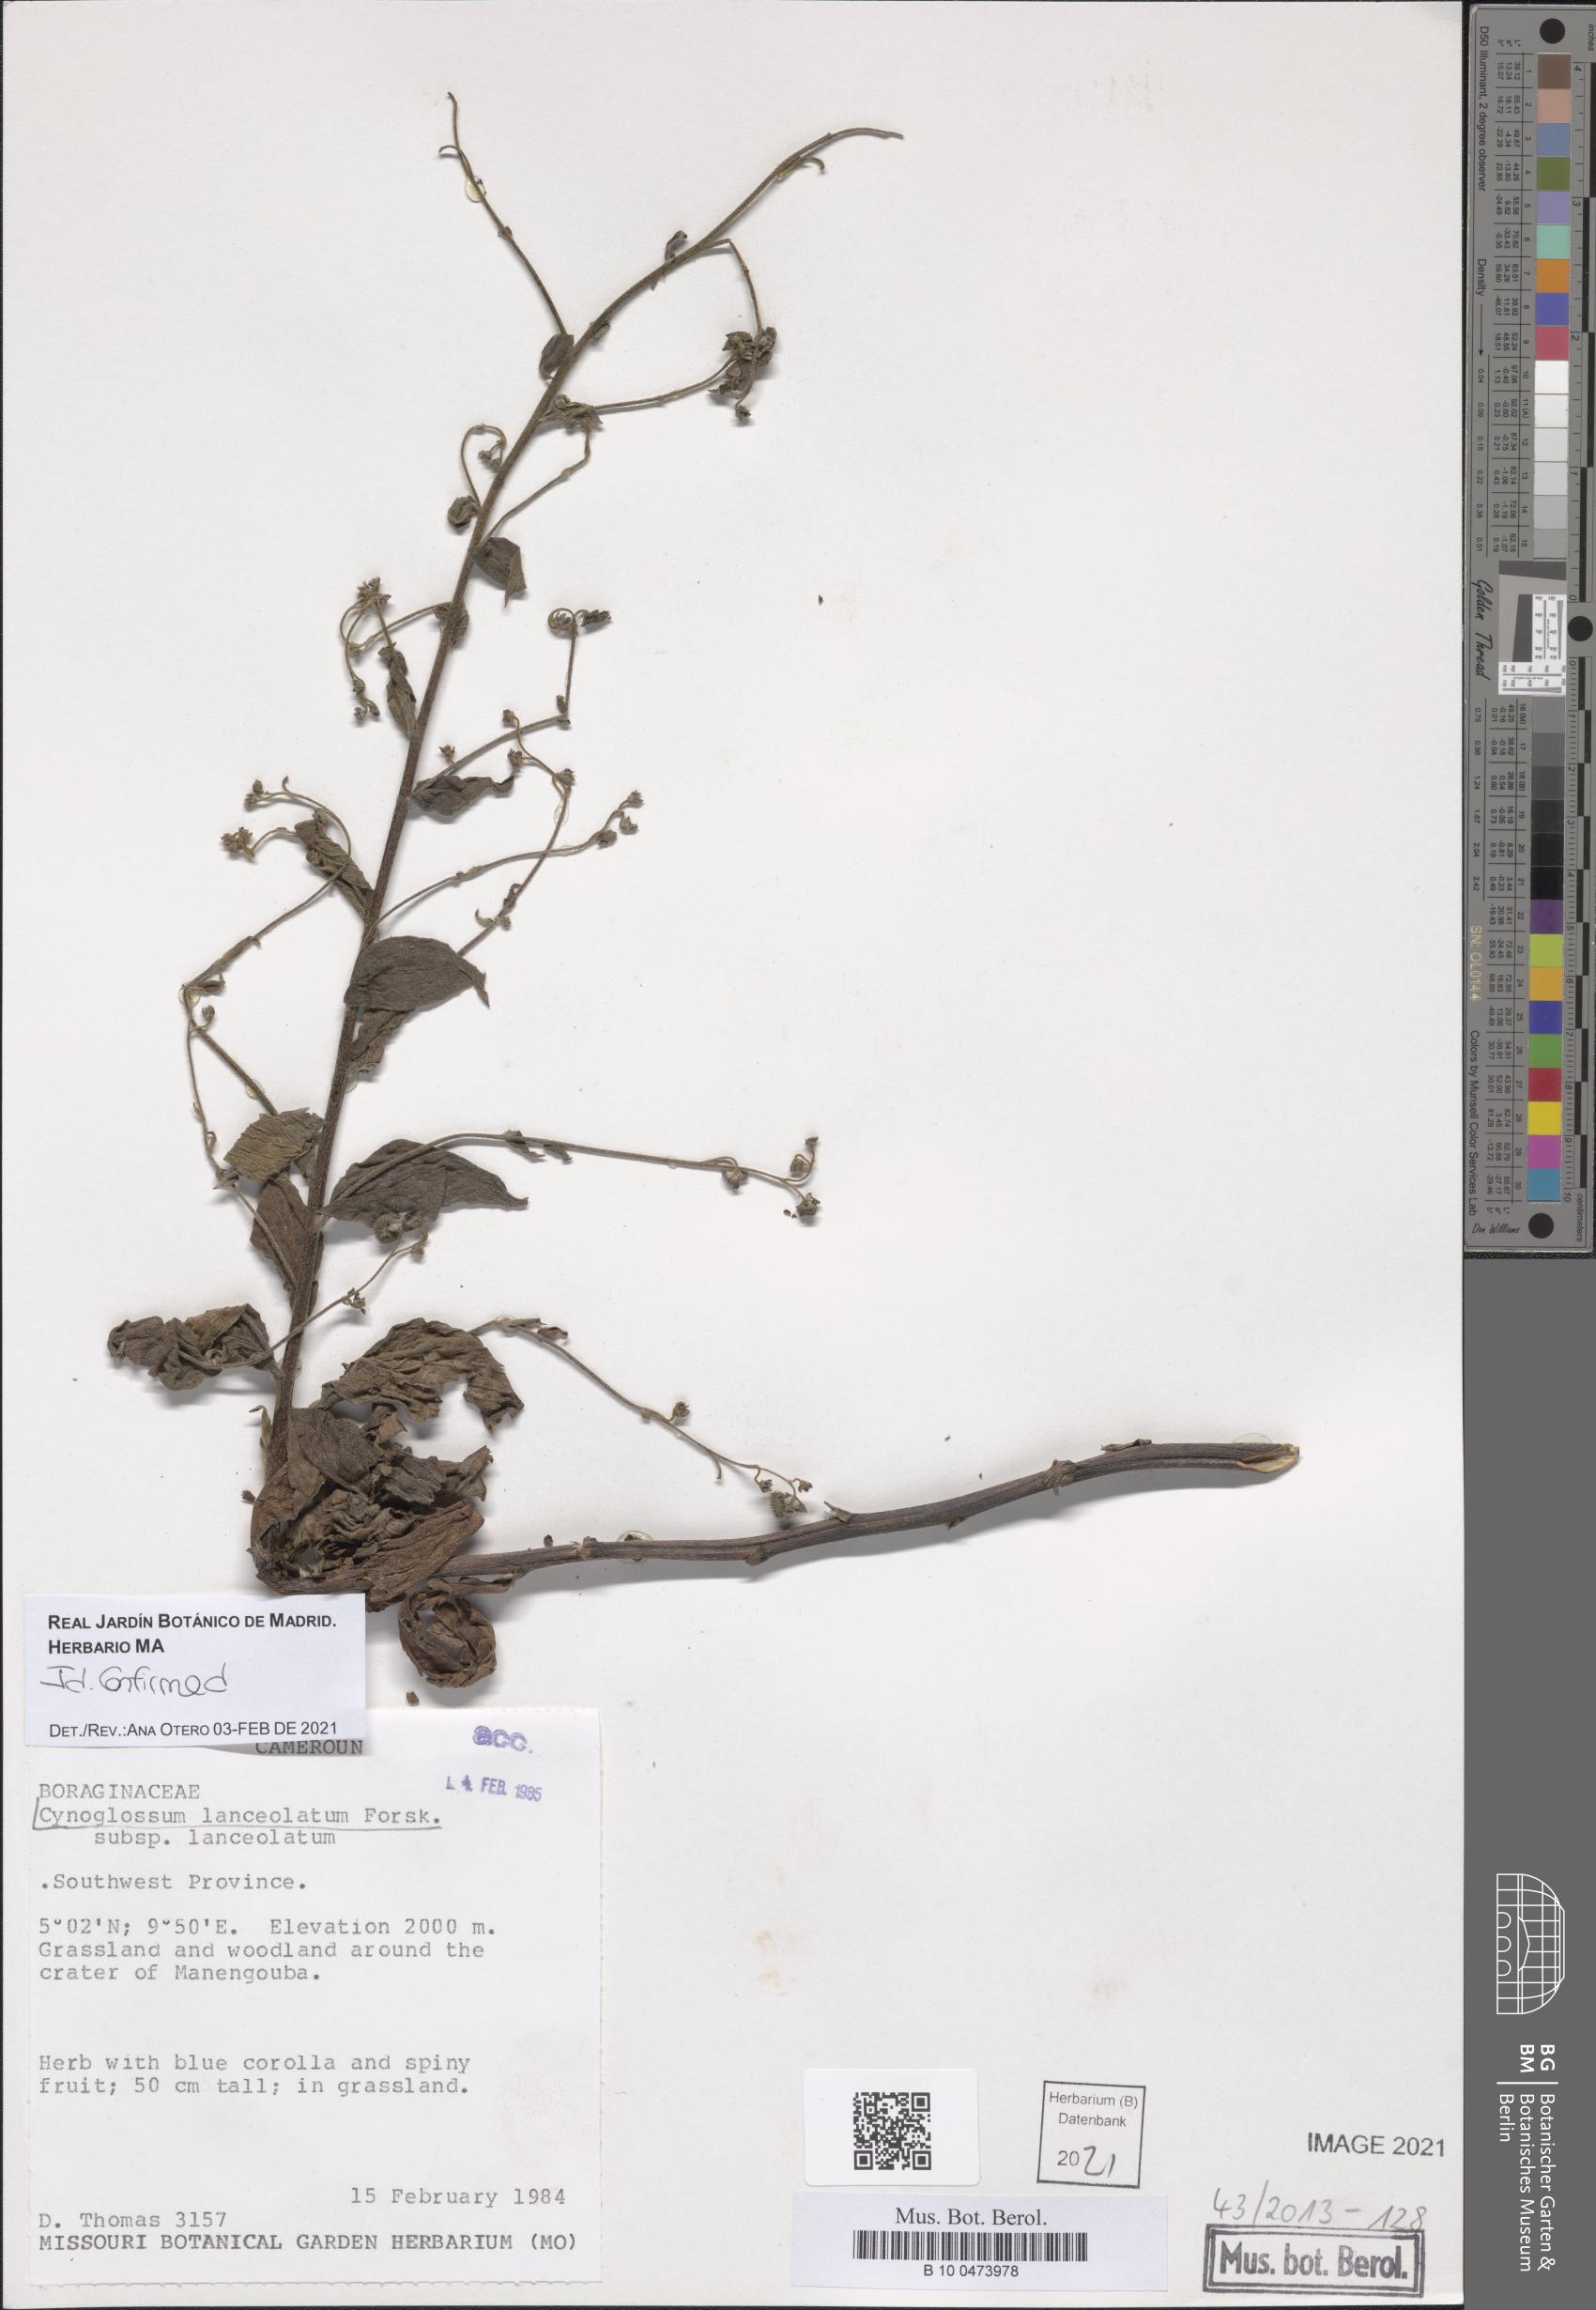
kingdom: Plantae
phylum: Tracheophyta
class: Magnoliopsida
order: Boraginales
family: Boraginaceae
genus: Paracynoglossum
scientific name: Paracynoglossum lanceolatum
